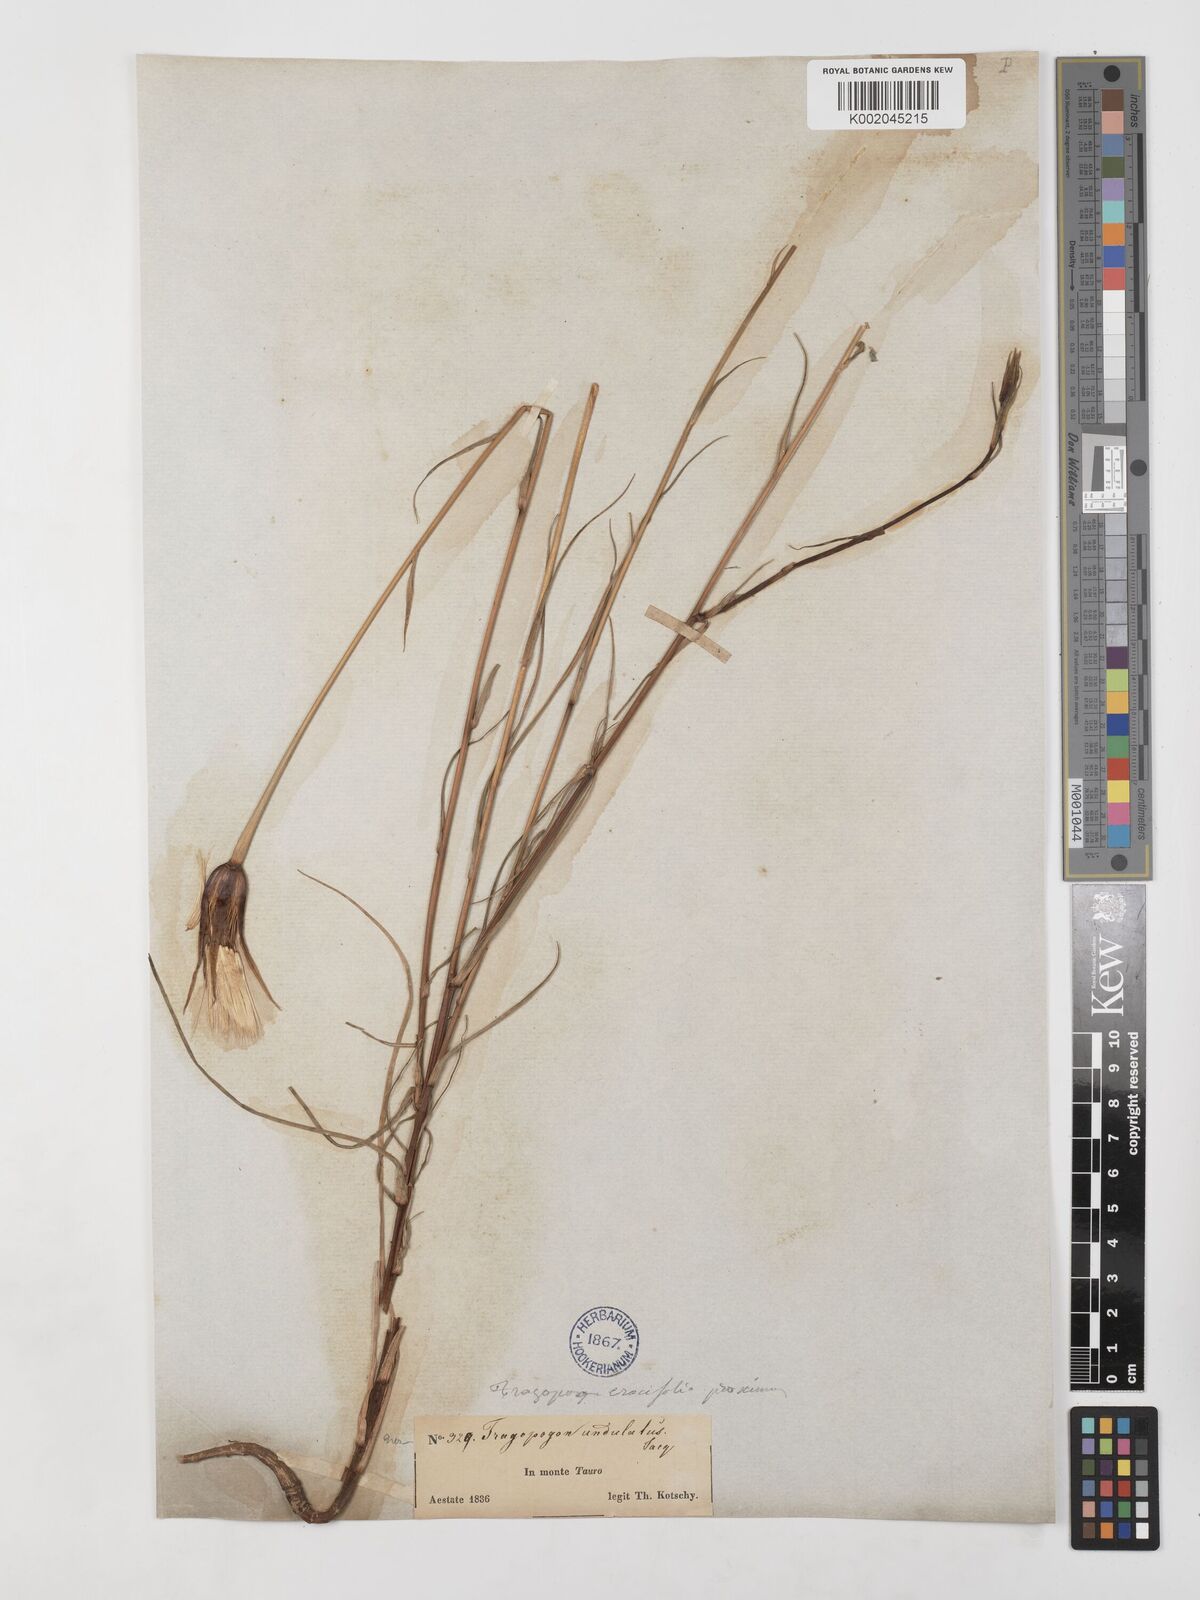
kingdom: Plantae
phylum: Tracheophyta
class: Magnoliopsida
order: Asterales
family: Asteraceae
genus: Tragopogon
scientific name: Tragopogon coelesyriacus
